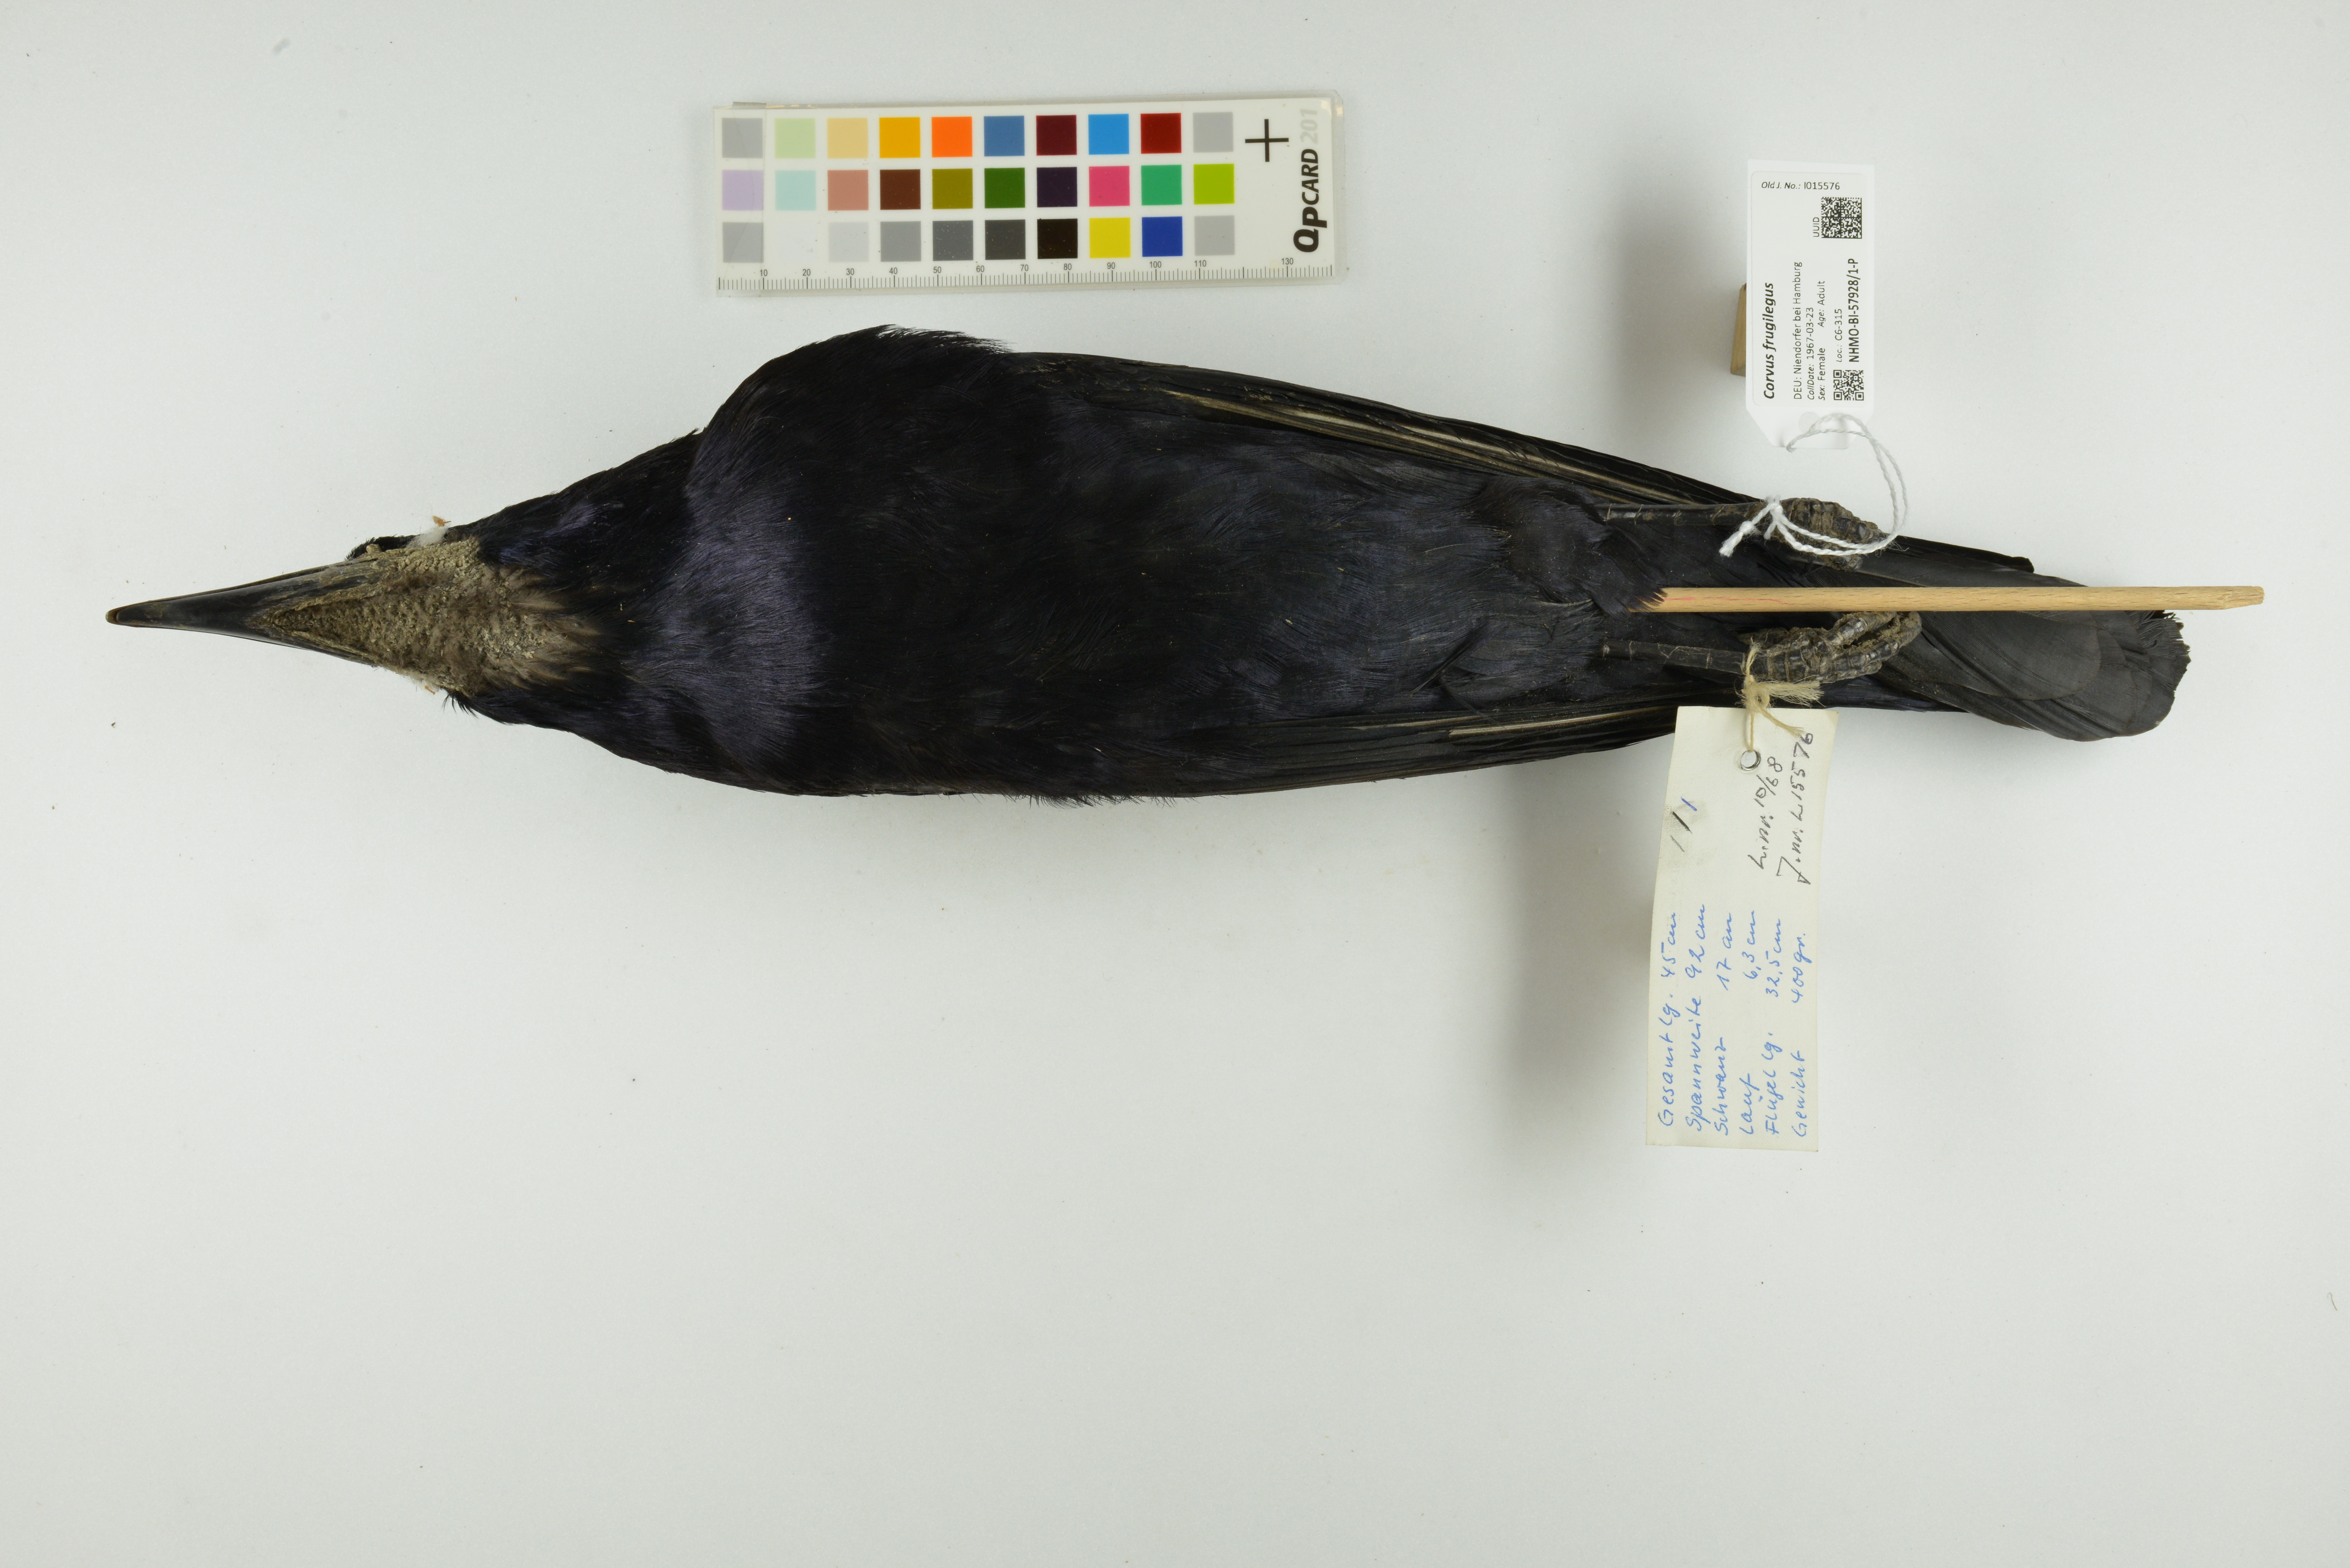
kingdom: Animalia
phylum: Chordata
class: Aves
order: Passeriformes
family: Corvidae
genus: Corvus
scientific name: Corvus frugilegus
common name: Rook
